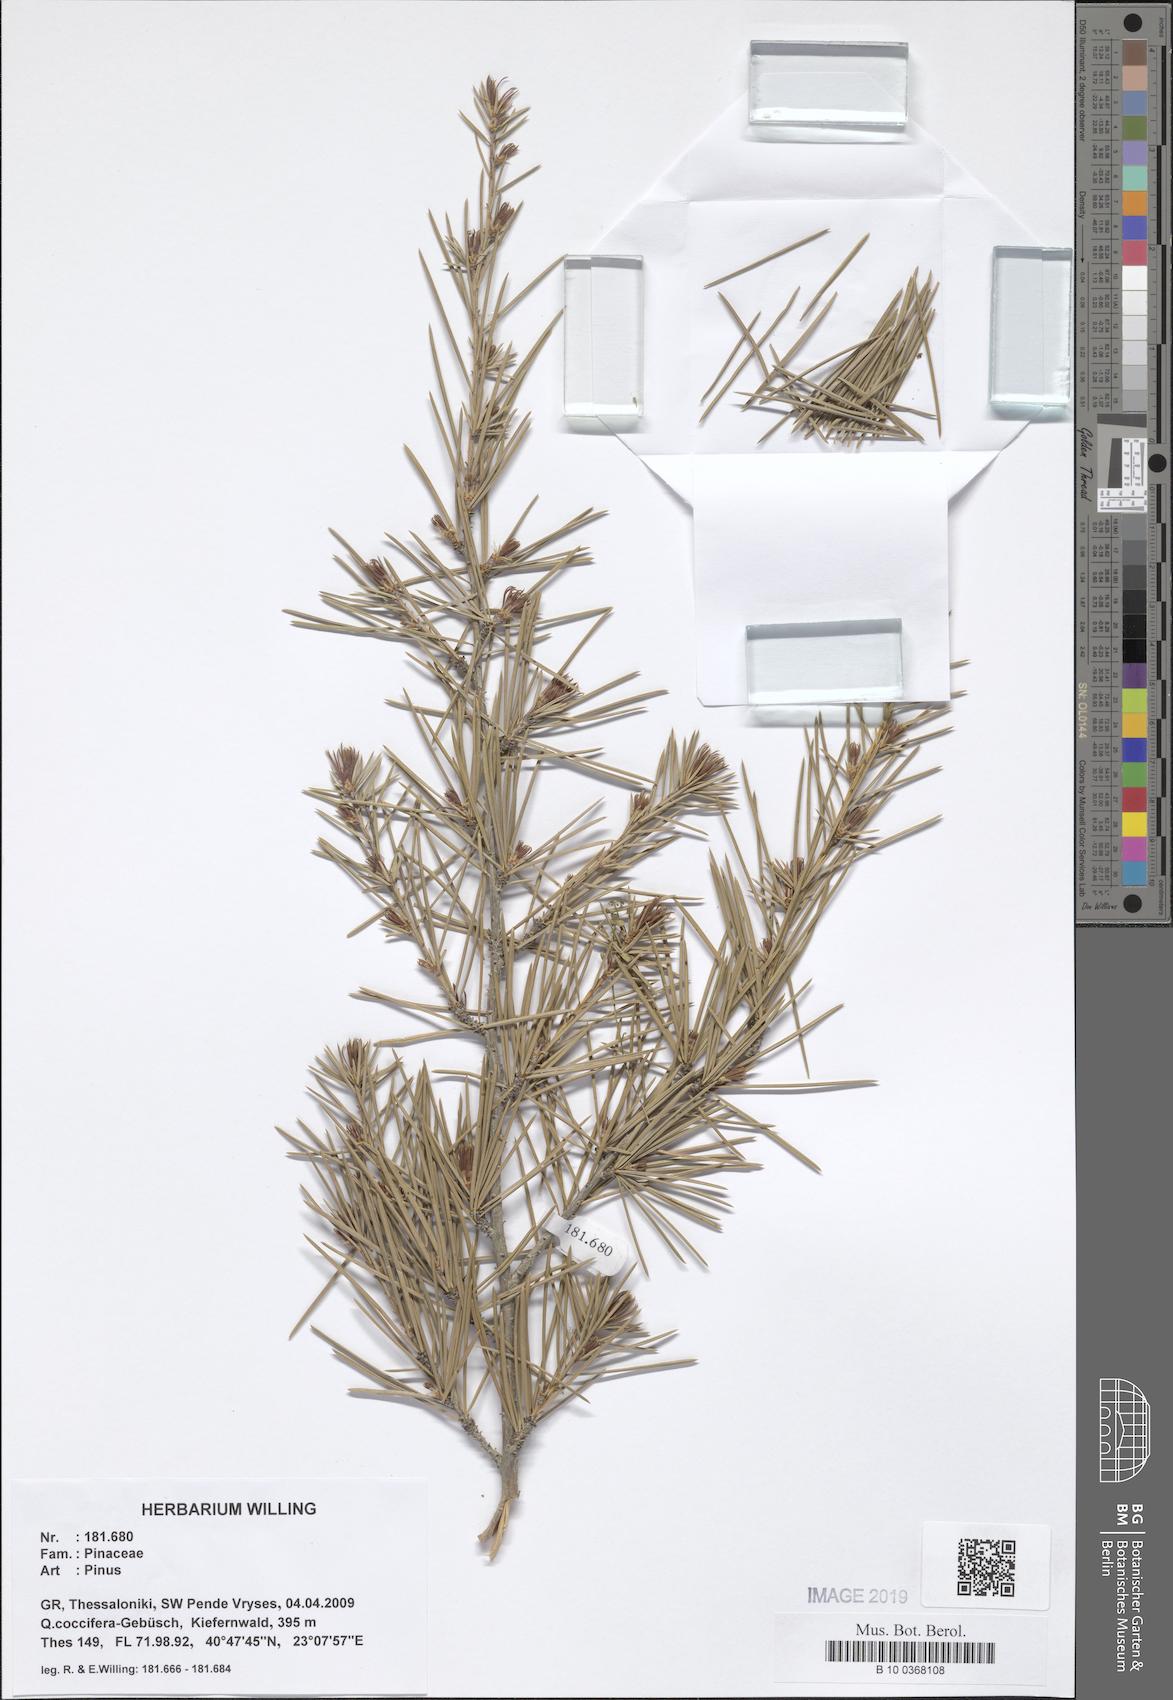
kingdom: Plantae
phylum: Tracheophyta
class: Pinopsida
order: Pinales
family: Pinaceae
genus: Pinus
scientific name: Pinus
